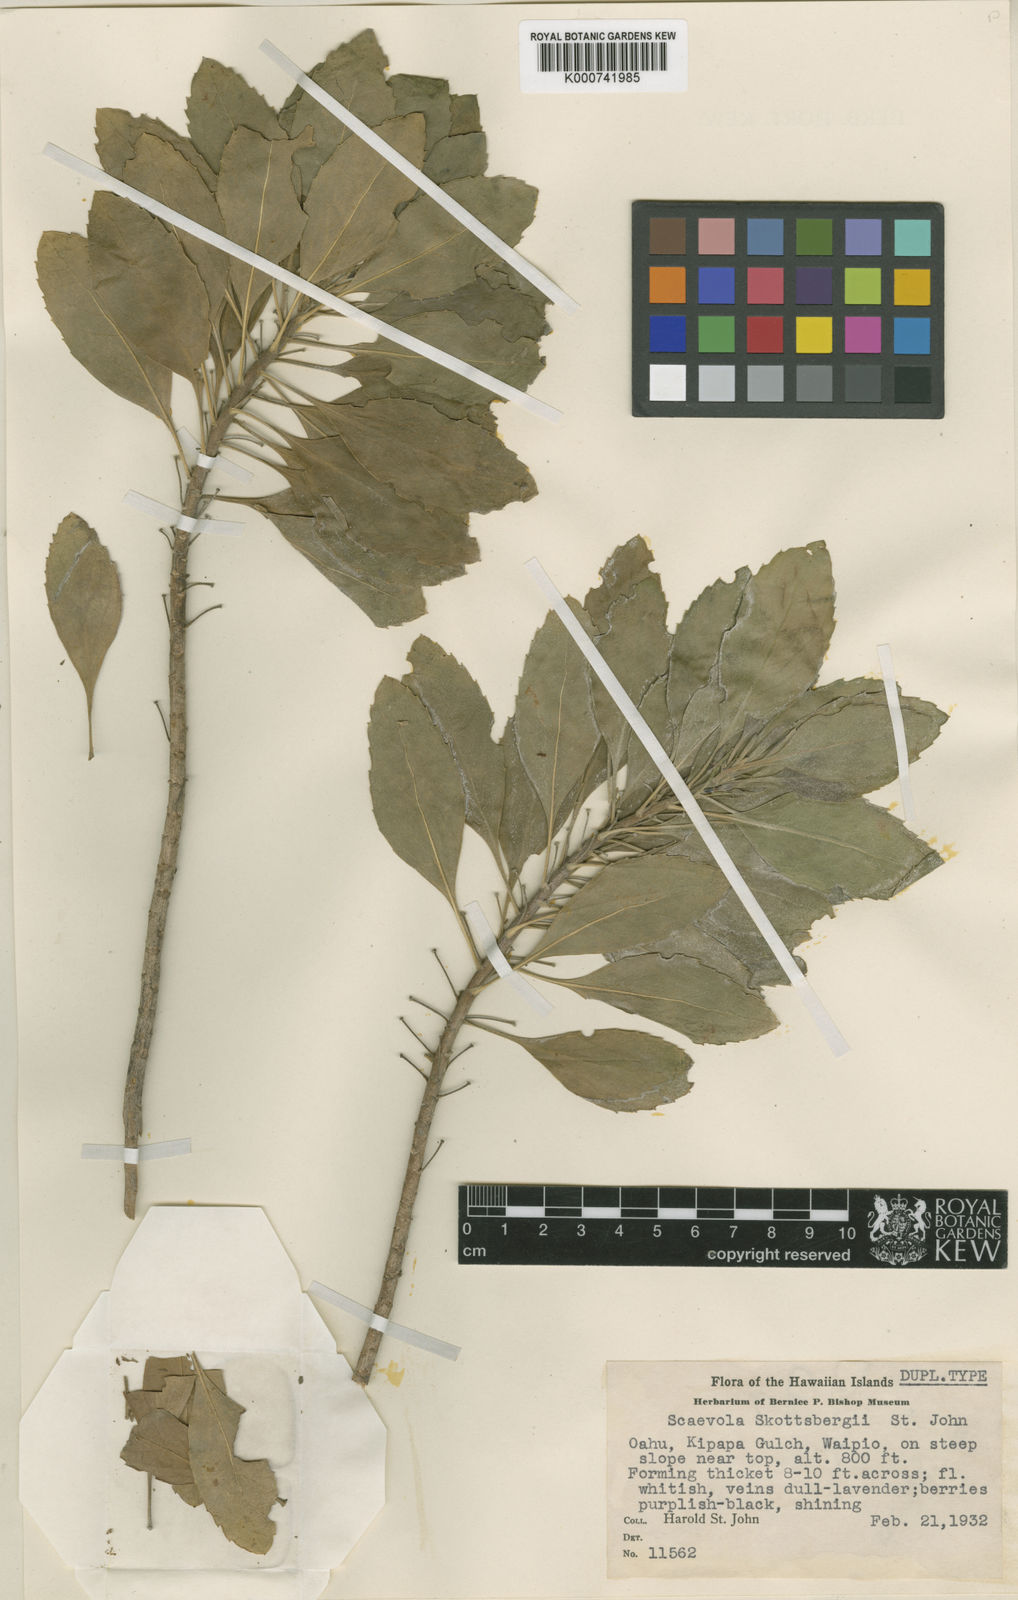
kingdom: Plantae
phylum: Tracheophyta
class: Magnoliopsida
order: Asterales
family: Goodeniaceae
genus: Scaevola
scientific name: Scaevola gaudichaudiana
